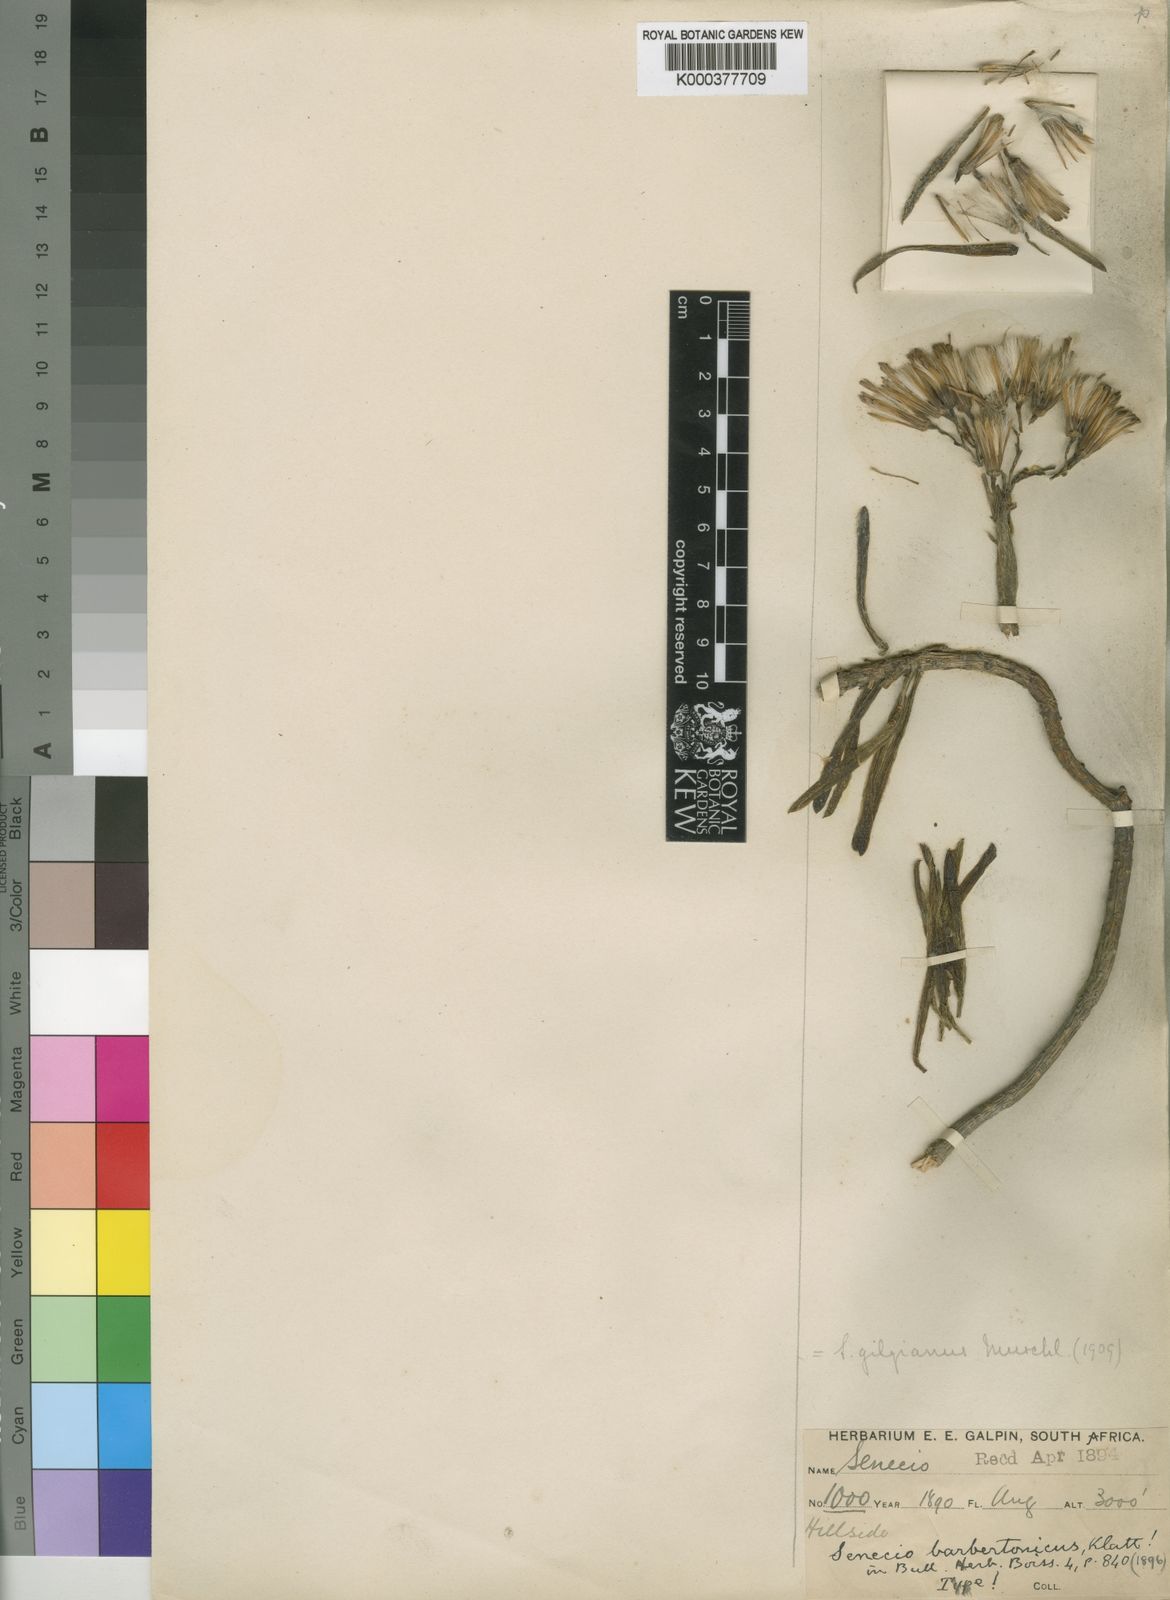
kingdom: Plantae
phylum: Tracheophyta
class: Magnoliopsida
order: Asterales
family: Asteraceae
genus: Kleinia
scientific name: Kleinia barbertonica
